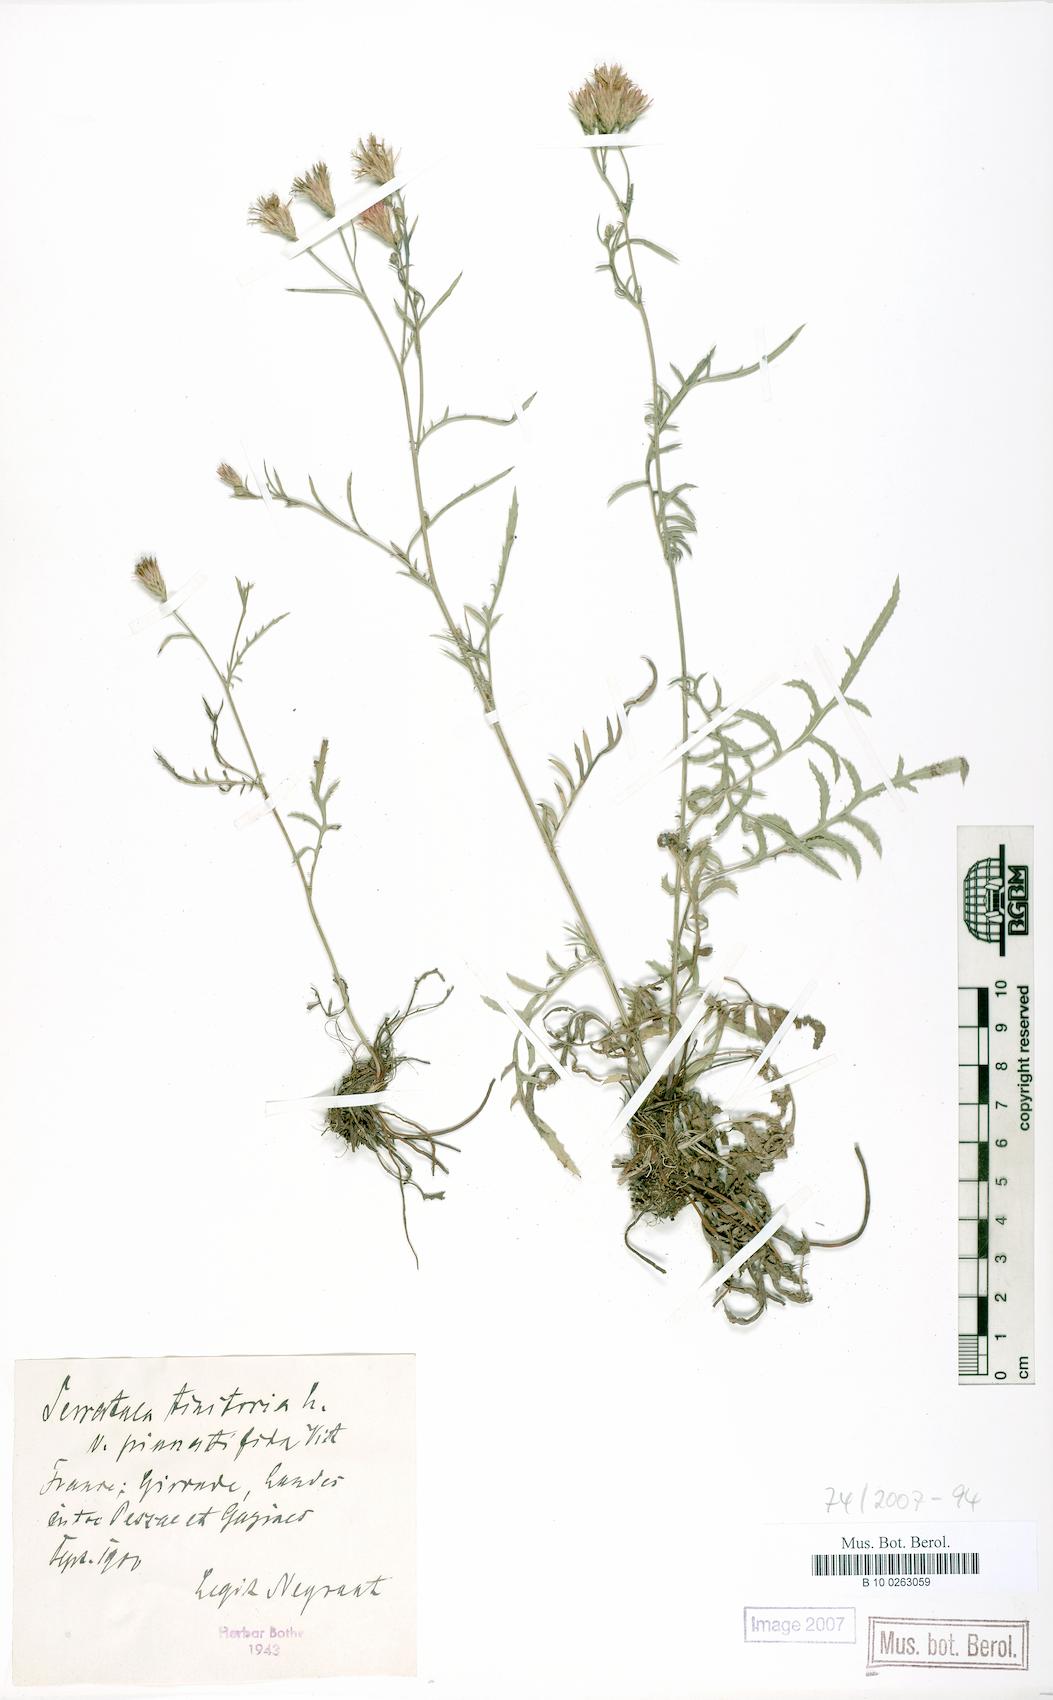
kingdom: Plantae
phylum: Tracheophyta
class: Magnoliopsida
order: Asterales
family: Asteraceae
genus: Serratula
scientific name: Serratula tinctoria
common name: Saw-wort
